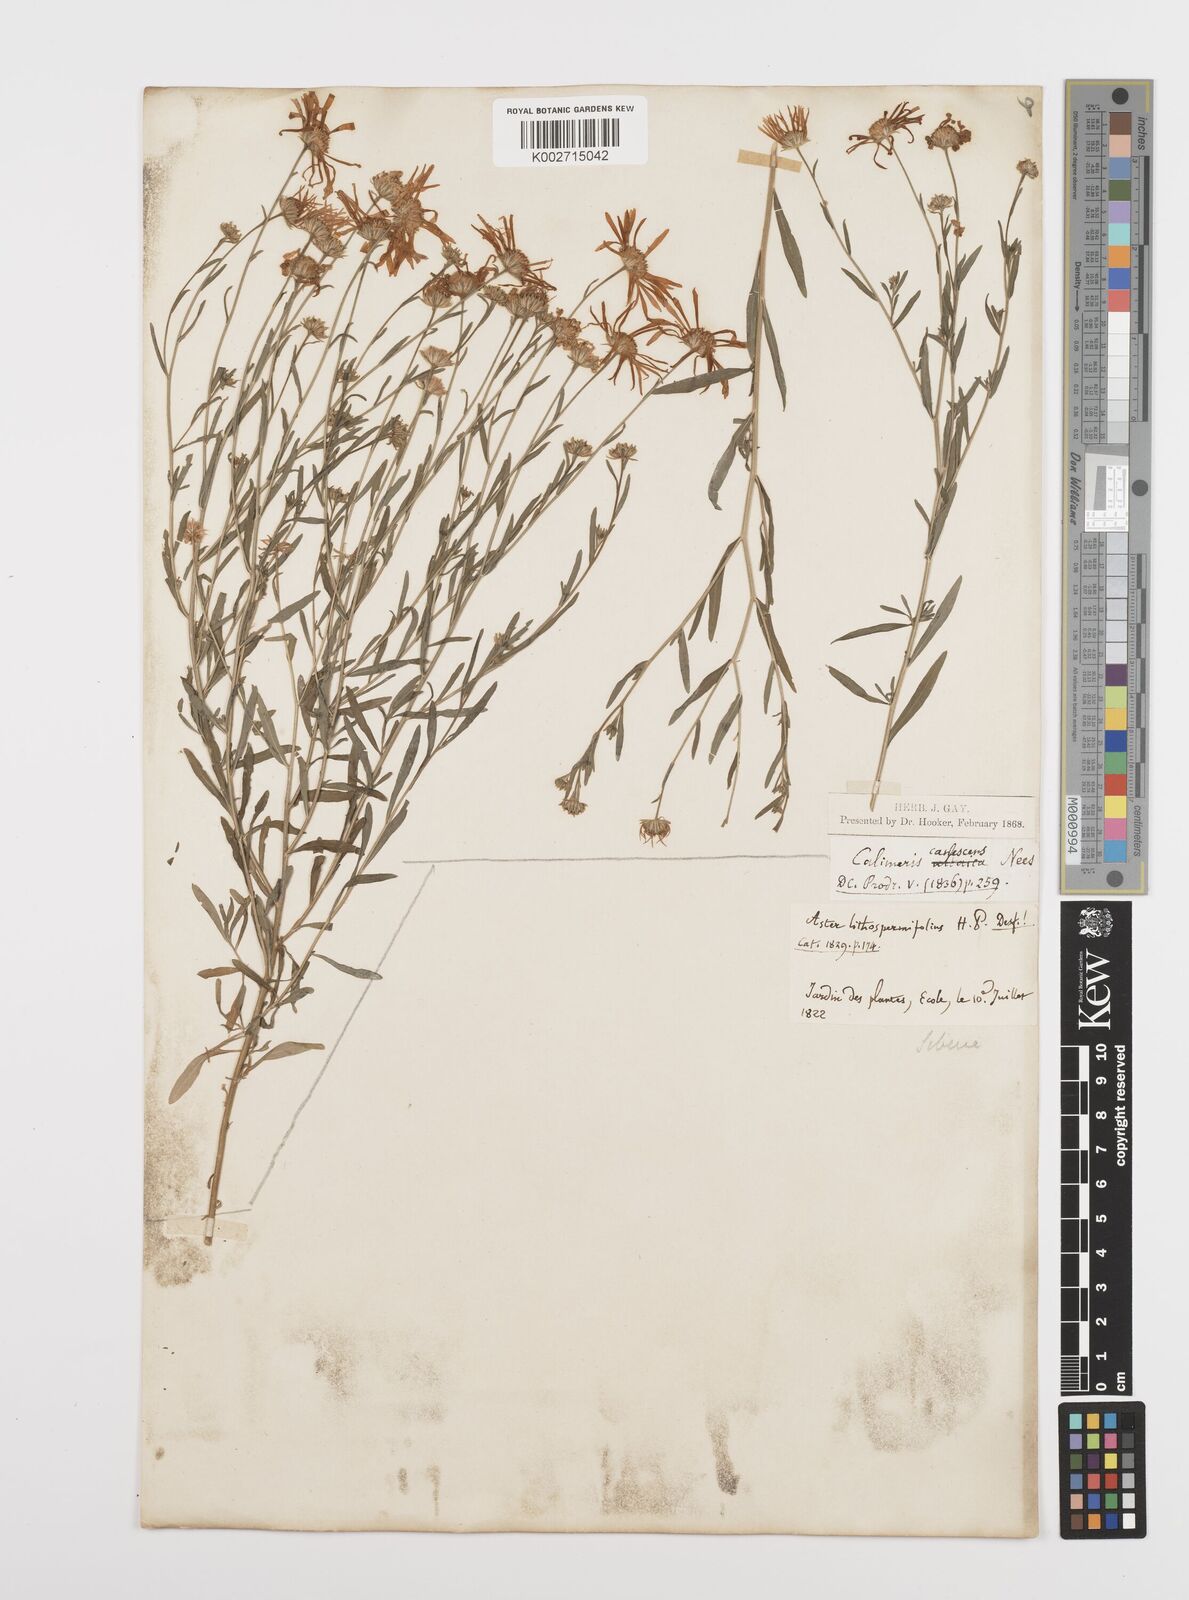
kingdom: Plantae
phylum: Tracheophyta
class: Magnoliopsida
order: Asterales
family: Asteraceae
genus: Heteropappus
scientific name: Heteropappus altaicus
